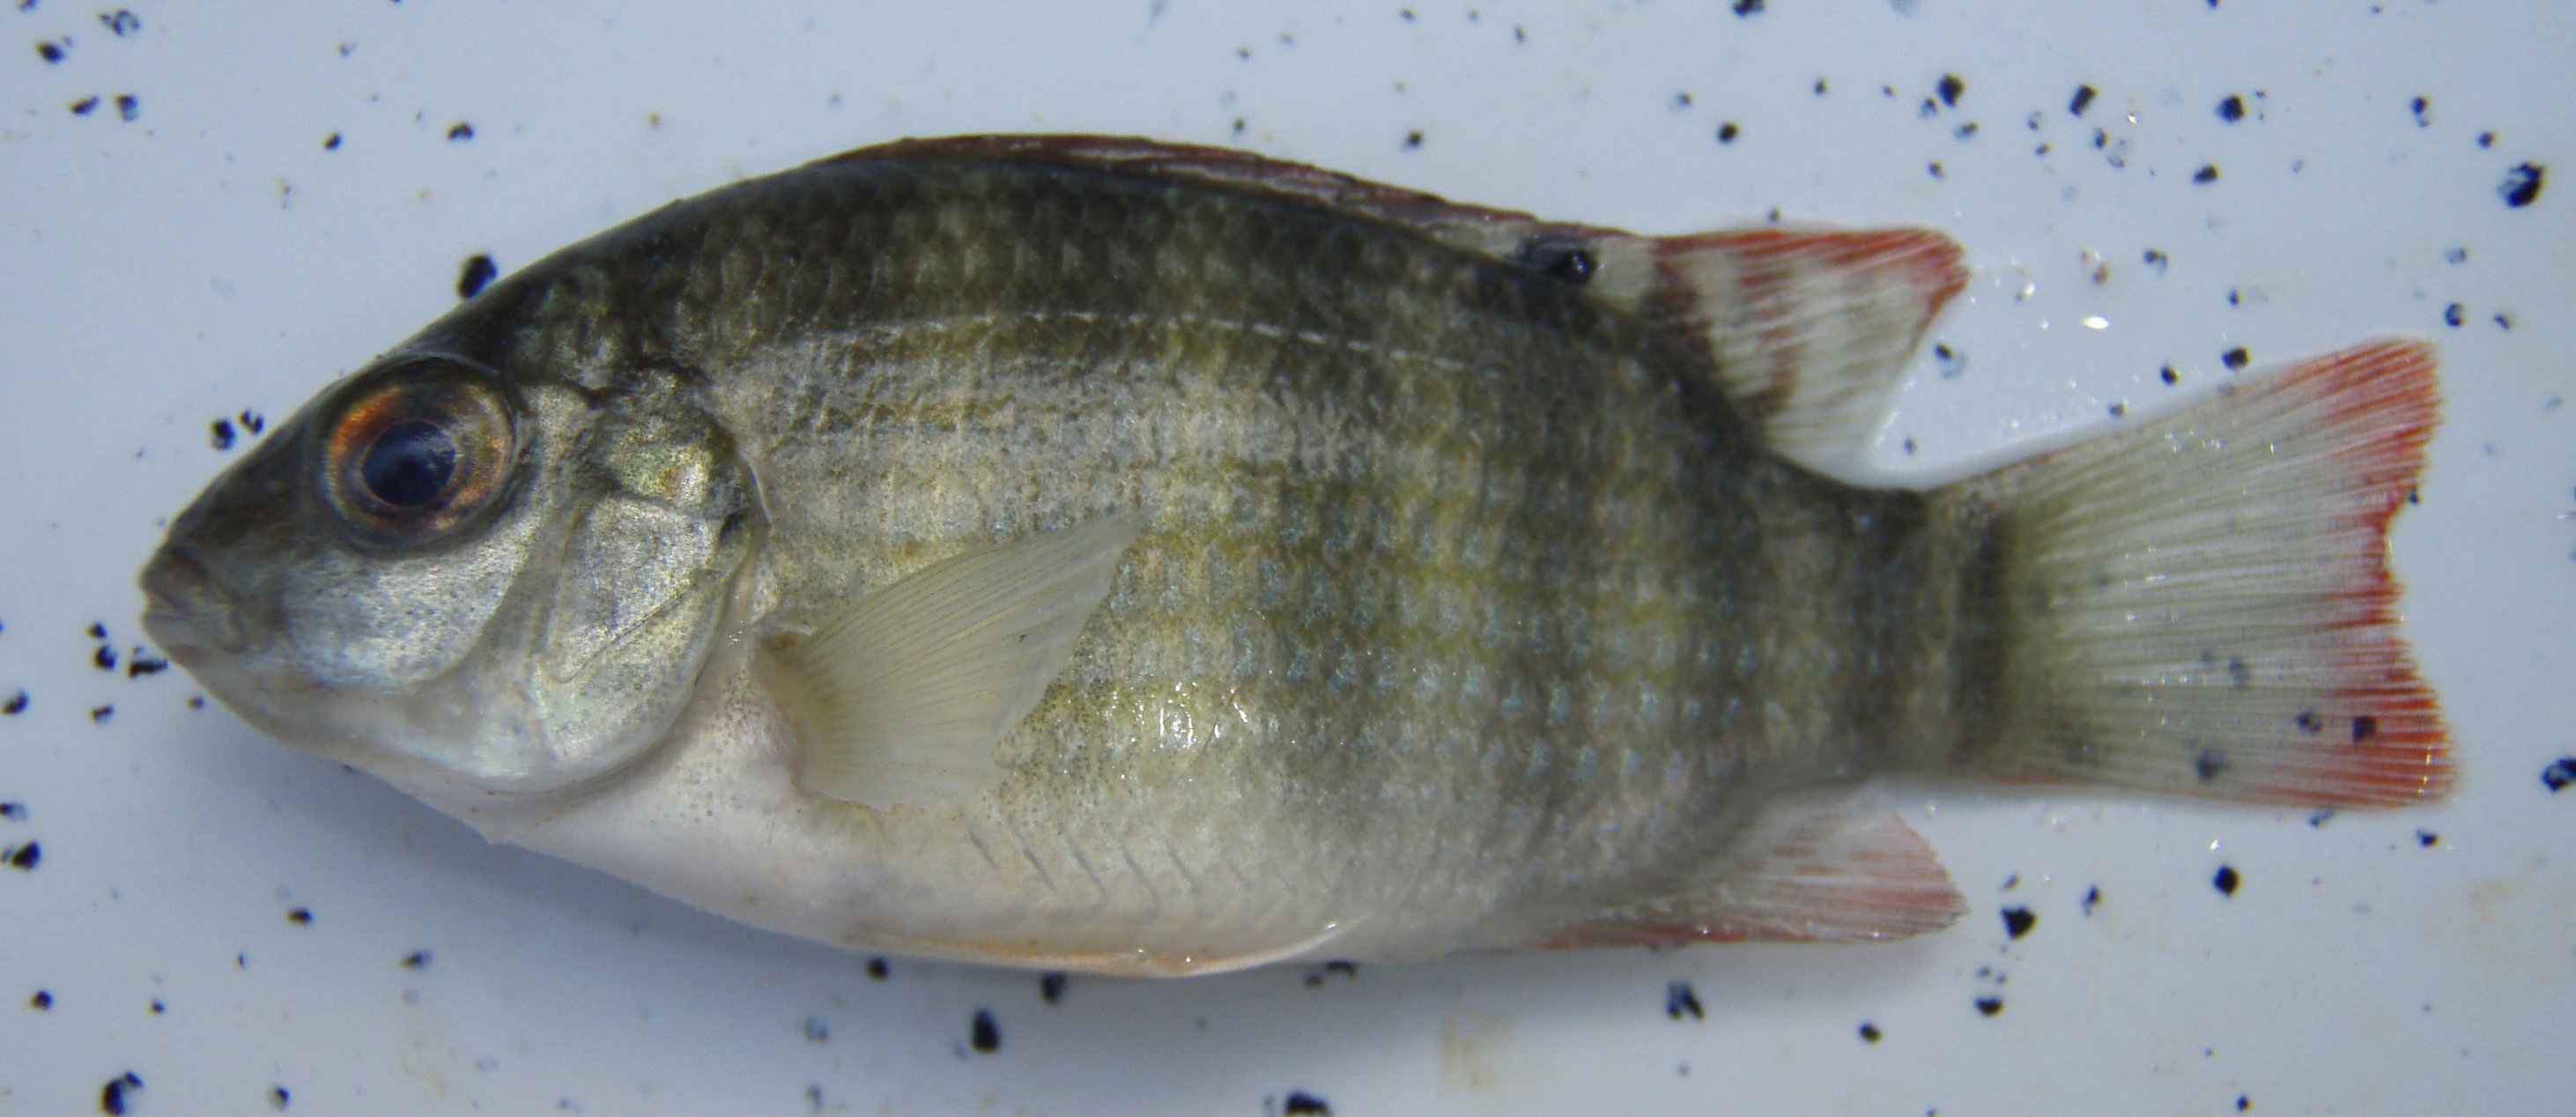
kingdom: Animalia
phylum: Chordata
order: Perciformes
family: Cichlidae
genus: Tilapia
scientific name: Tilapia
